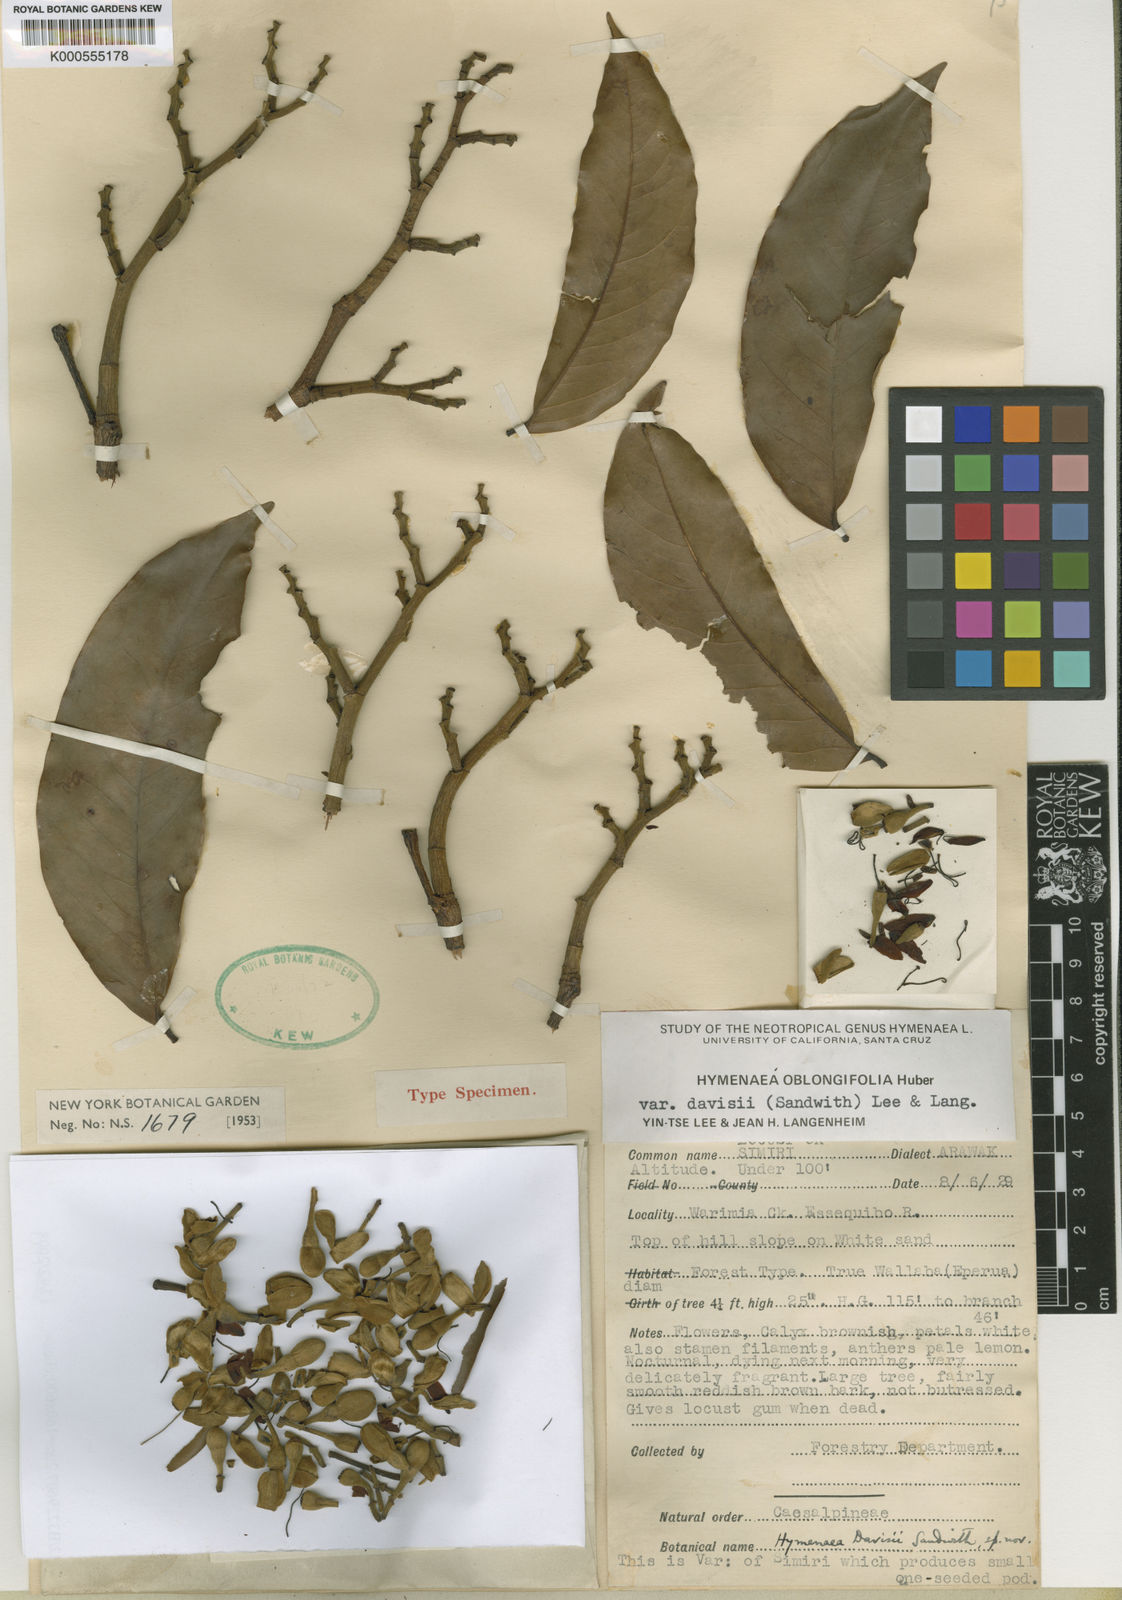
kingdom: Plantae
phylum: Tracheophyta
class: Magnoliopsida
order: Fabales
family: Fabaceae
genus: Hymenaea
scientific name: Hymenaea oblongifolia
